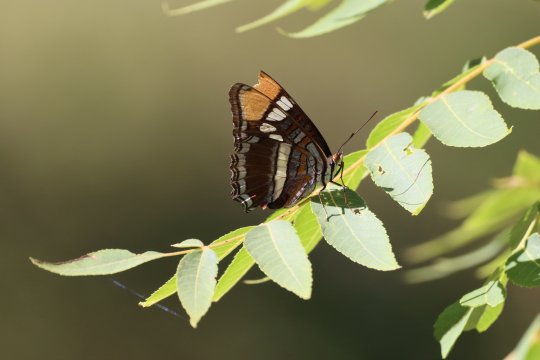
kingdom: Animalia
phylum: Arthropoda
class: Insecta
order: Lepidoptera
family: Nymphalidae
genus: Limenitis
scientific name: Limenitis bredowii
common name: Arizona Sister
